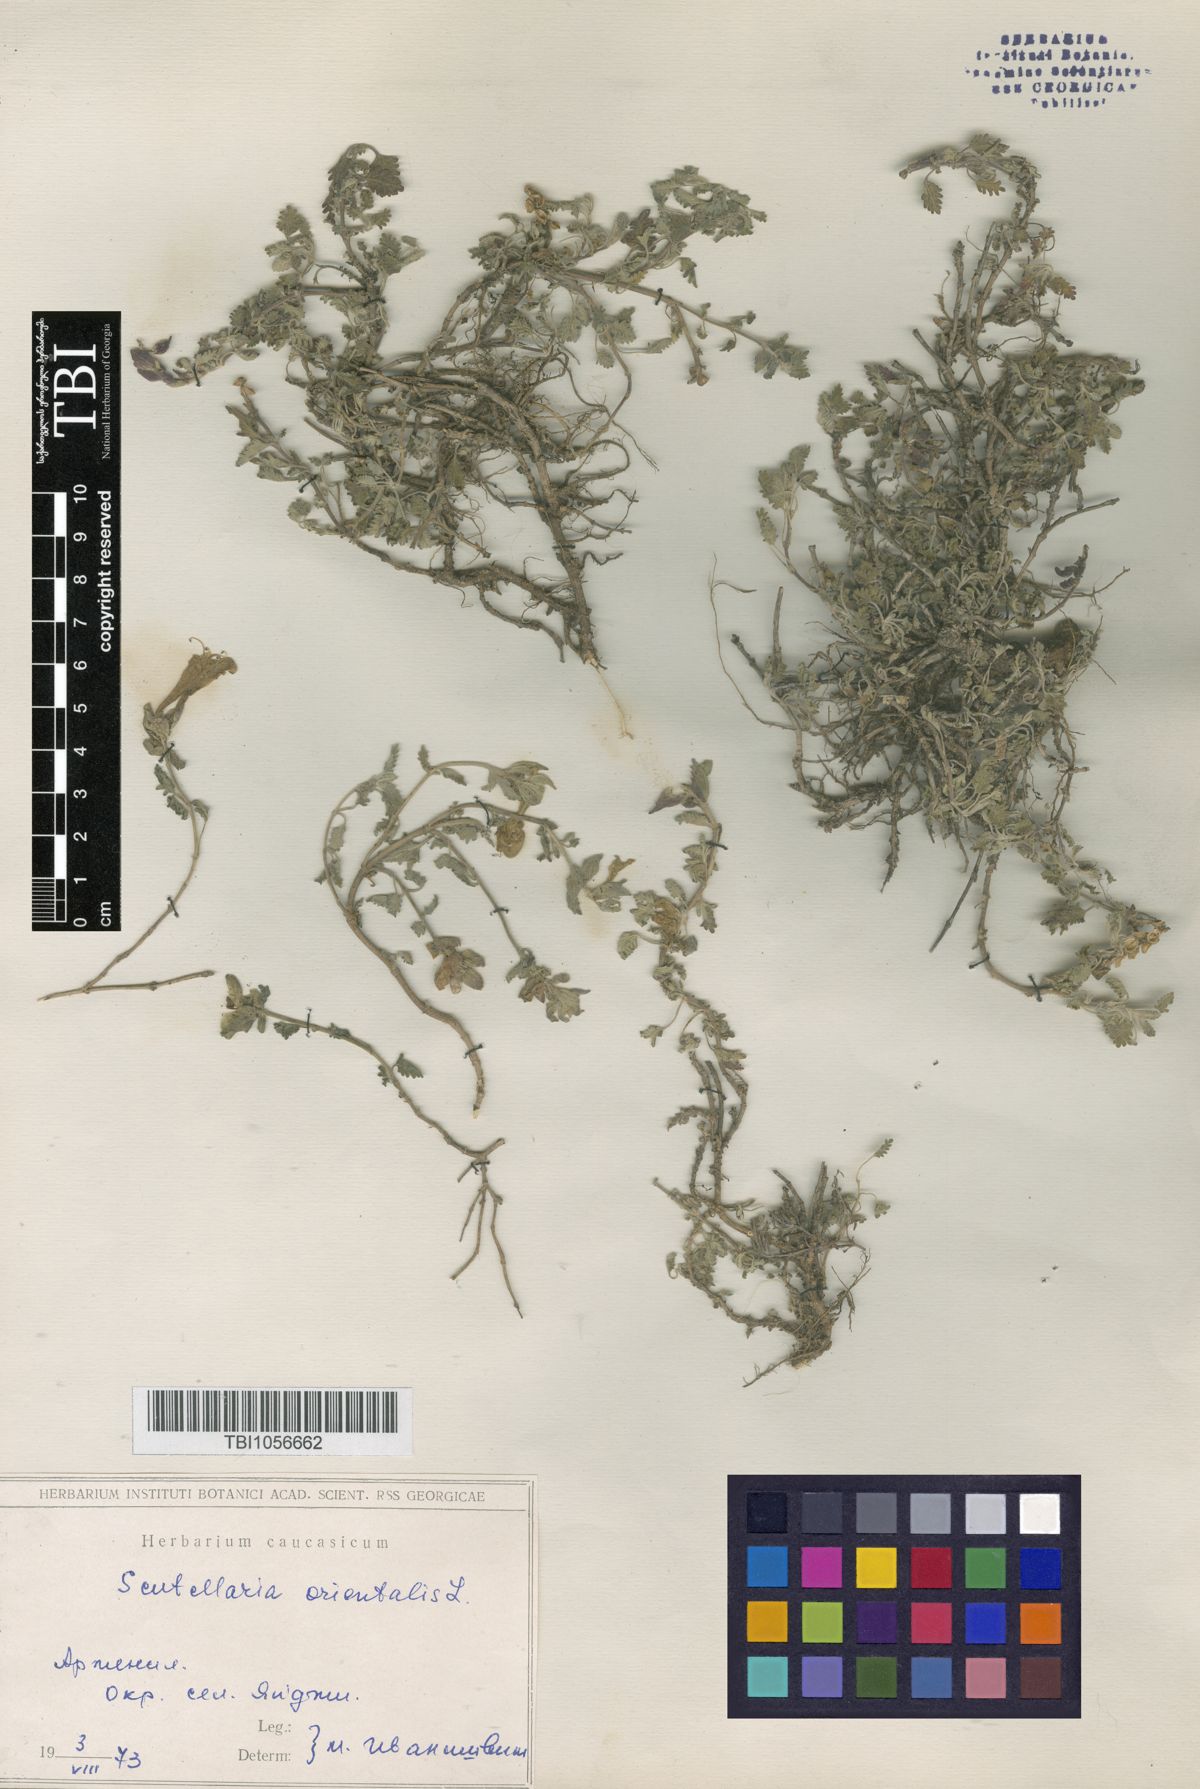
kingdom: Plantae
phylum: Tracheophyta
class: Magnoliopsida
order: Lamiales
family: Lamiaceae
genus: Scutellaria
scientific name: Scutellaria orientalis
